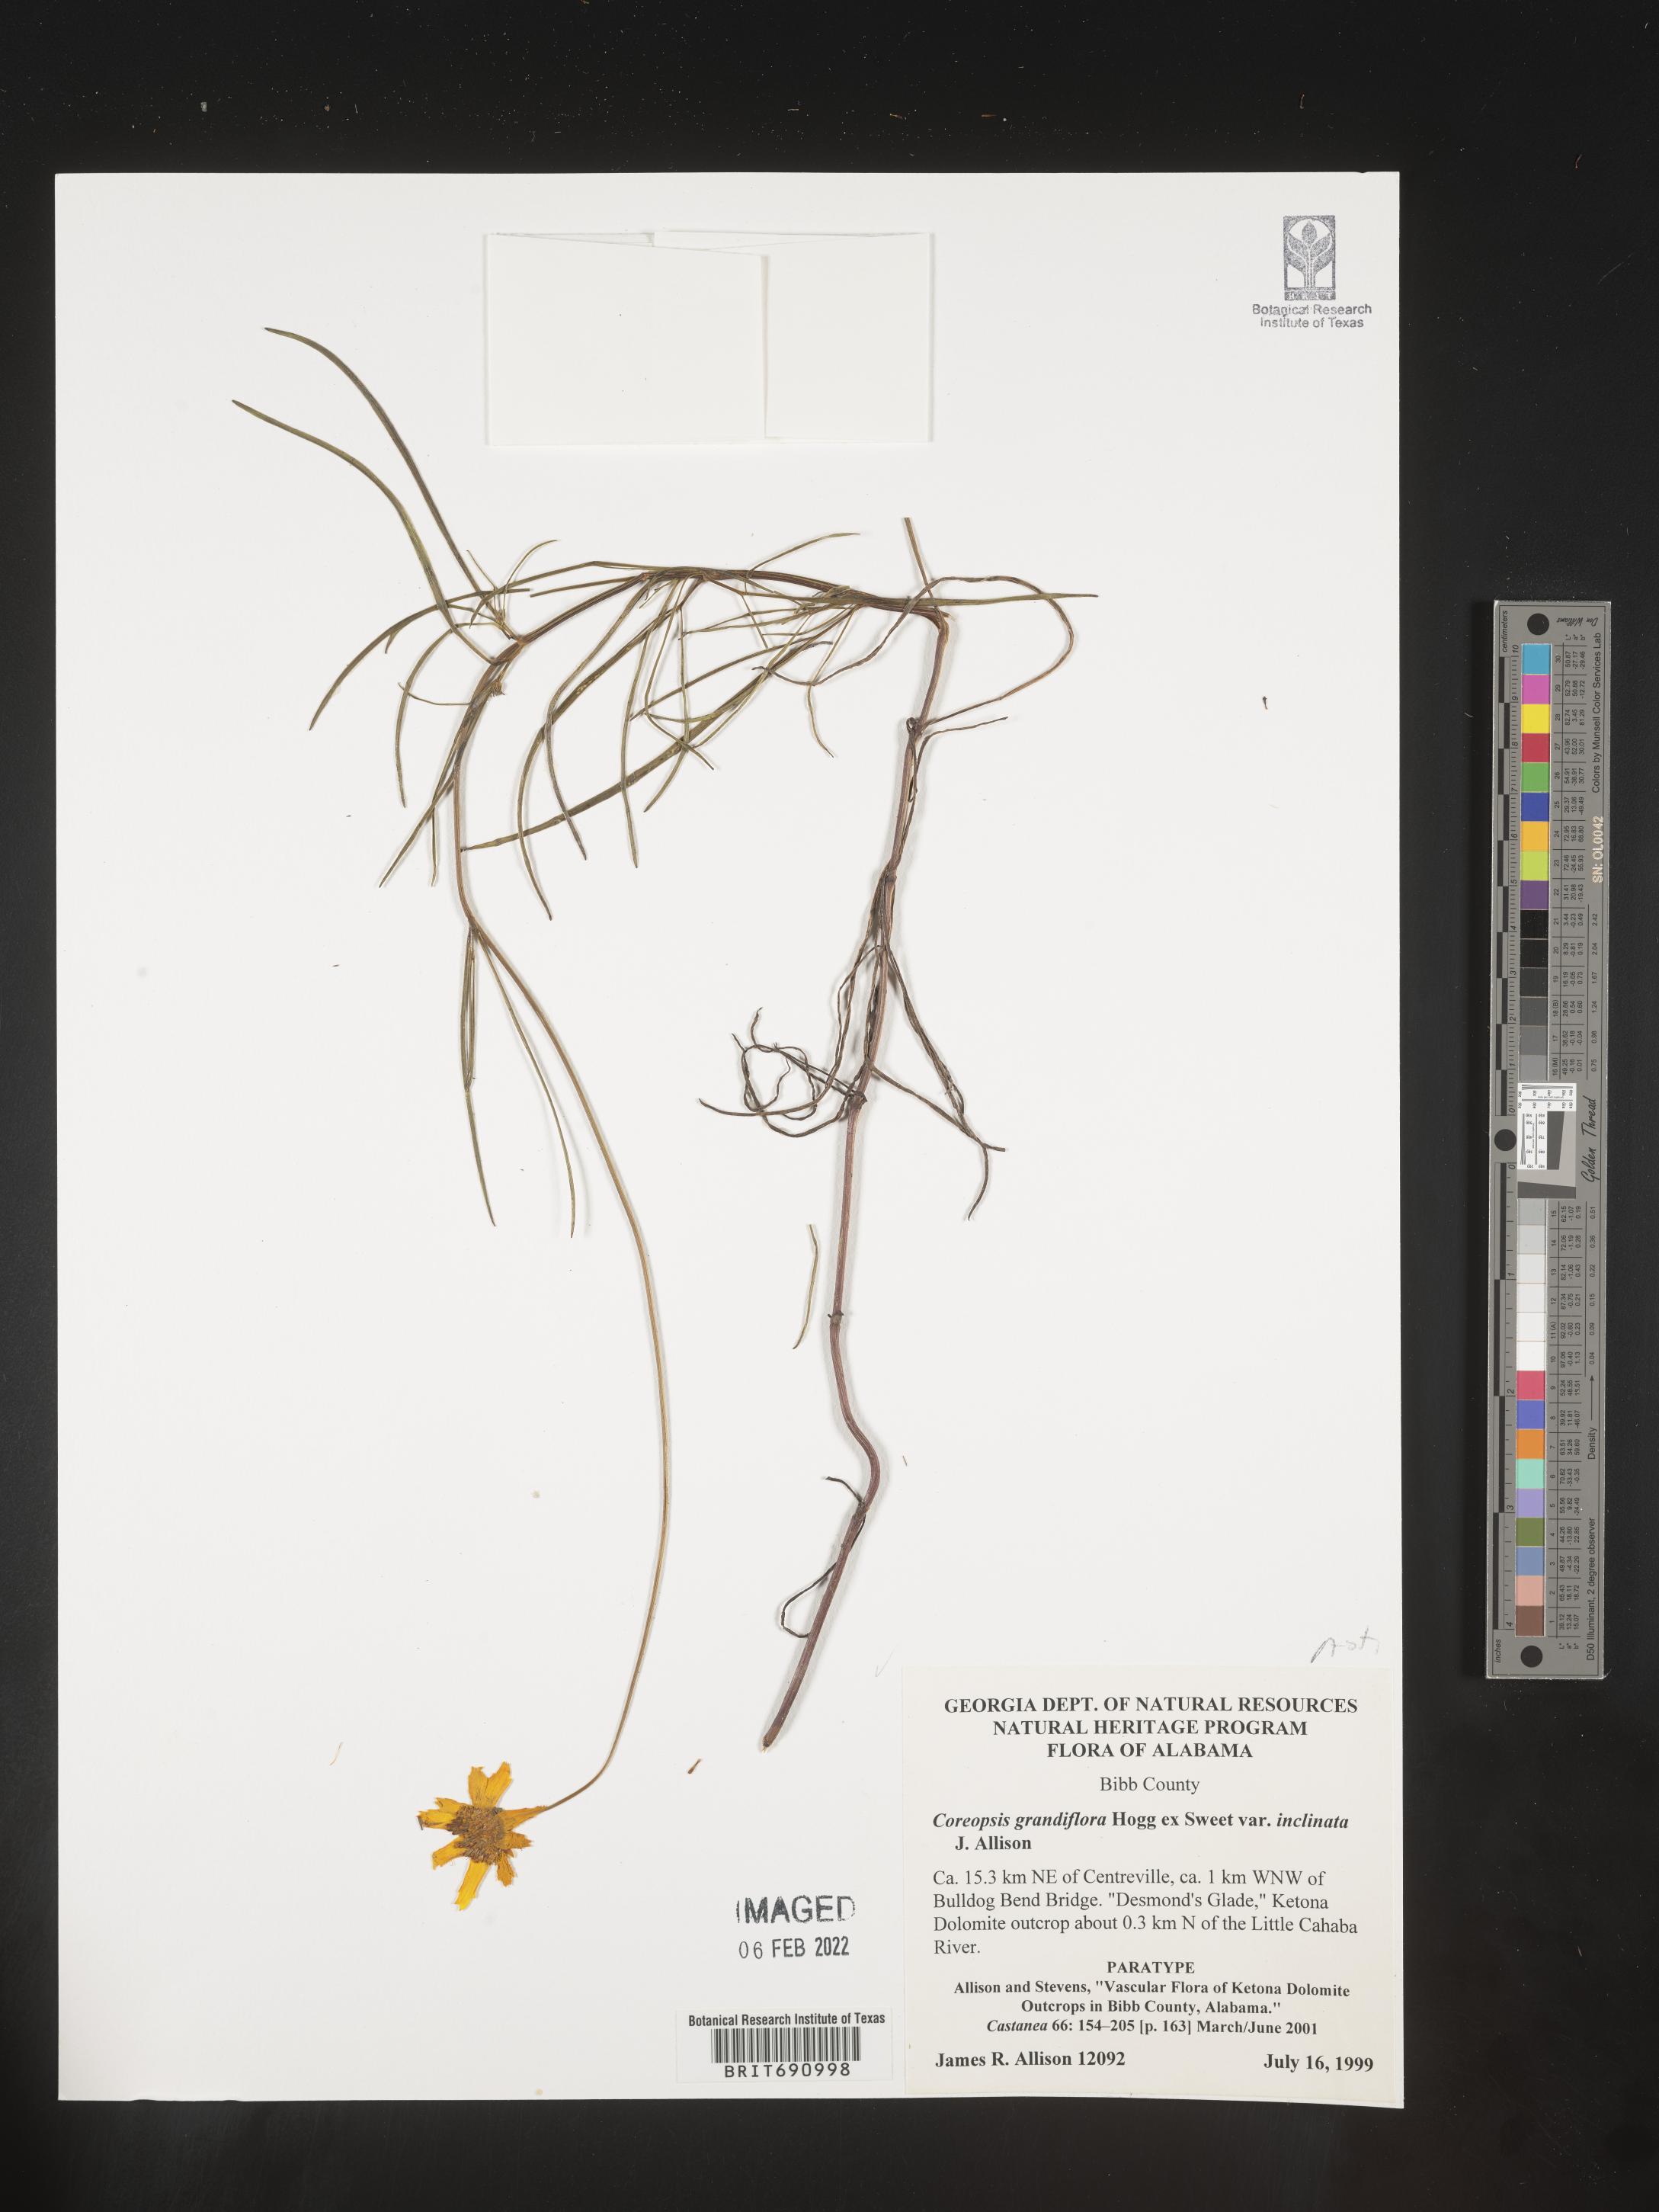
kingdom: Plantae
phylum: Tracheophyta
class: Magnoliopsida
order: Asterales
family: Asteraceae
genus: Coreopsis
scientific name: Coreopsis grandiflora
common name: Large-flowered tickseed
